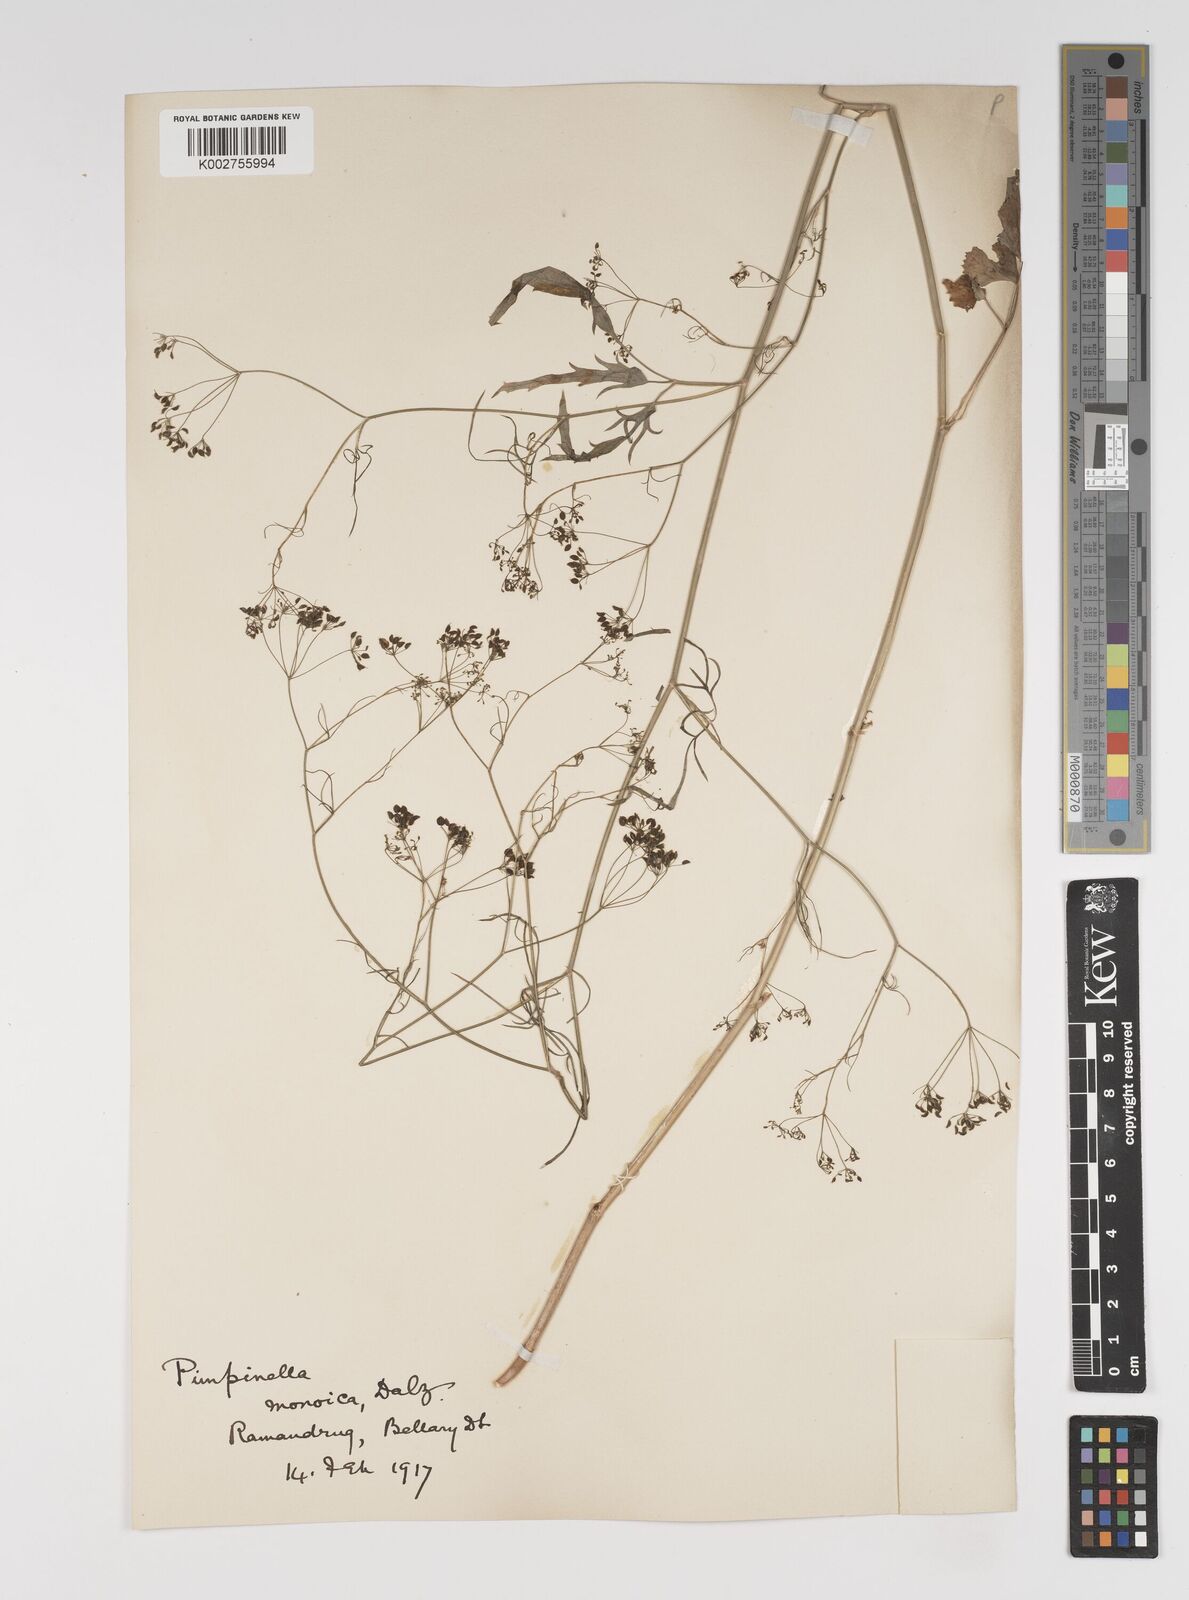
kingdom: Plantae
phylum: Tracheophyta
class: Magnoliopsida
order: Apiales
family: Apiaceae
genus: Pimpinella
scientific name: Pimpinella wallichiana
